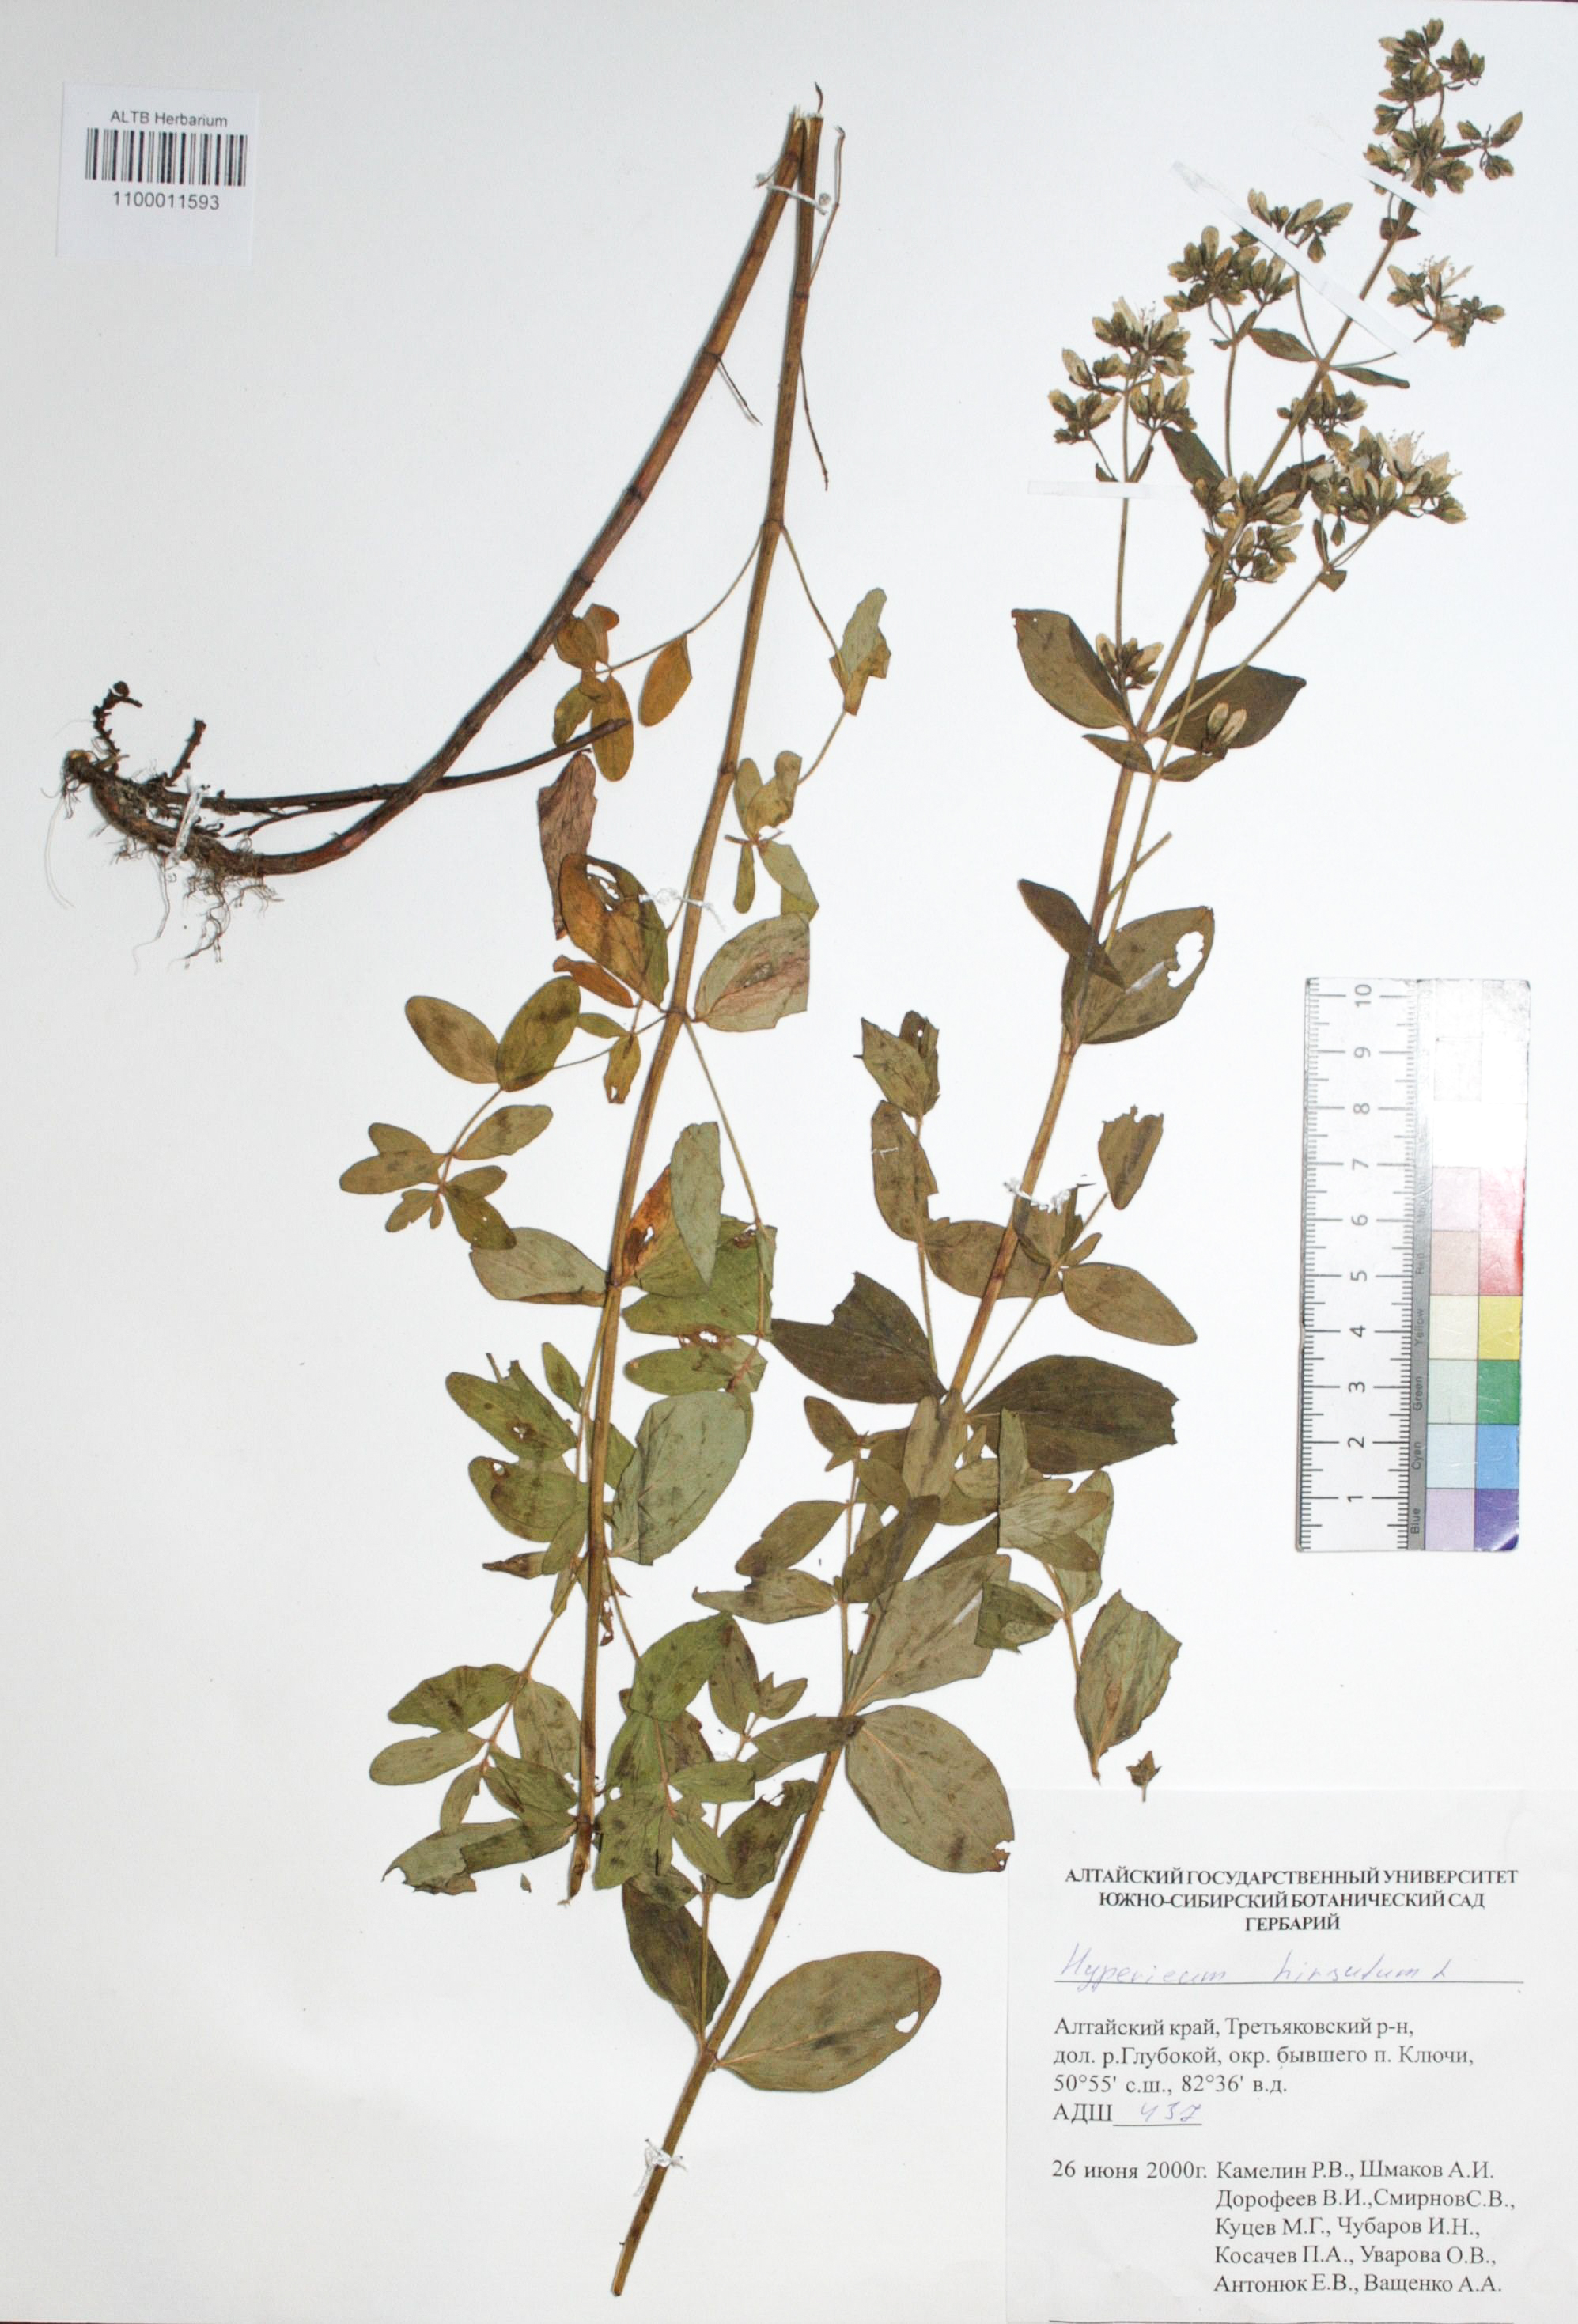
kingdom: Plantae
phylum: Tracheophyta
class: Magnoliopsida
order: Malpighiales
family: Hypericaceae
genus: Hypericum
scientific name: Hypericum hirsutum
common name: Hairy st. john's-wort
